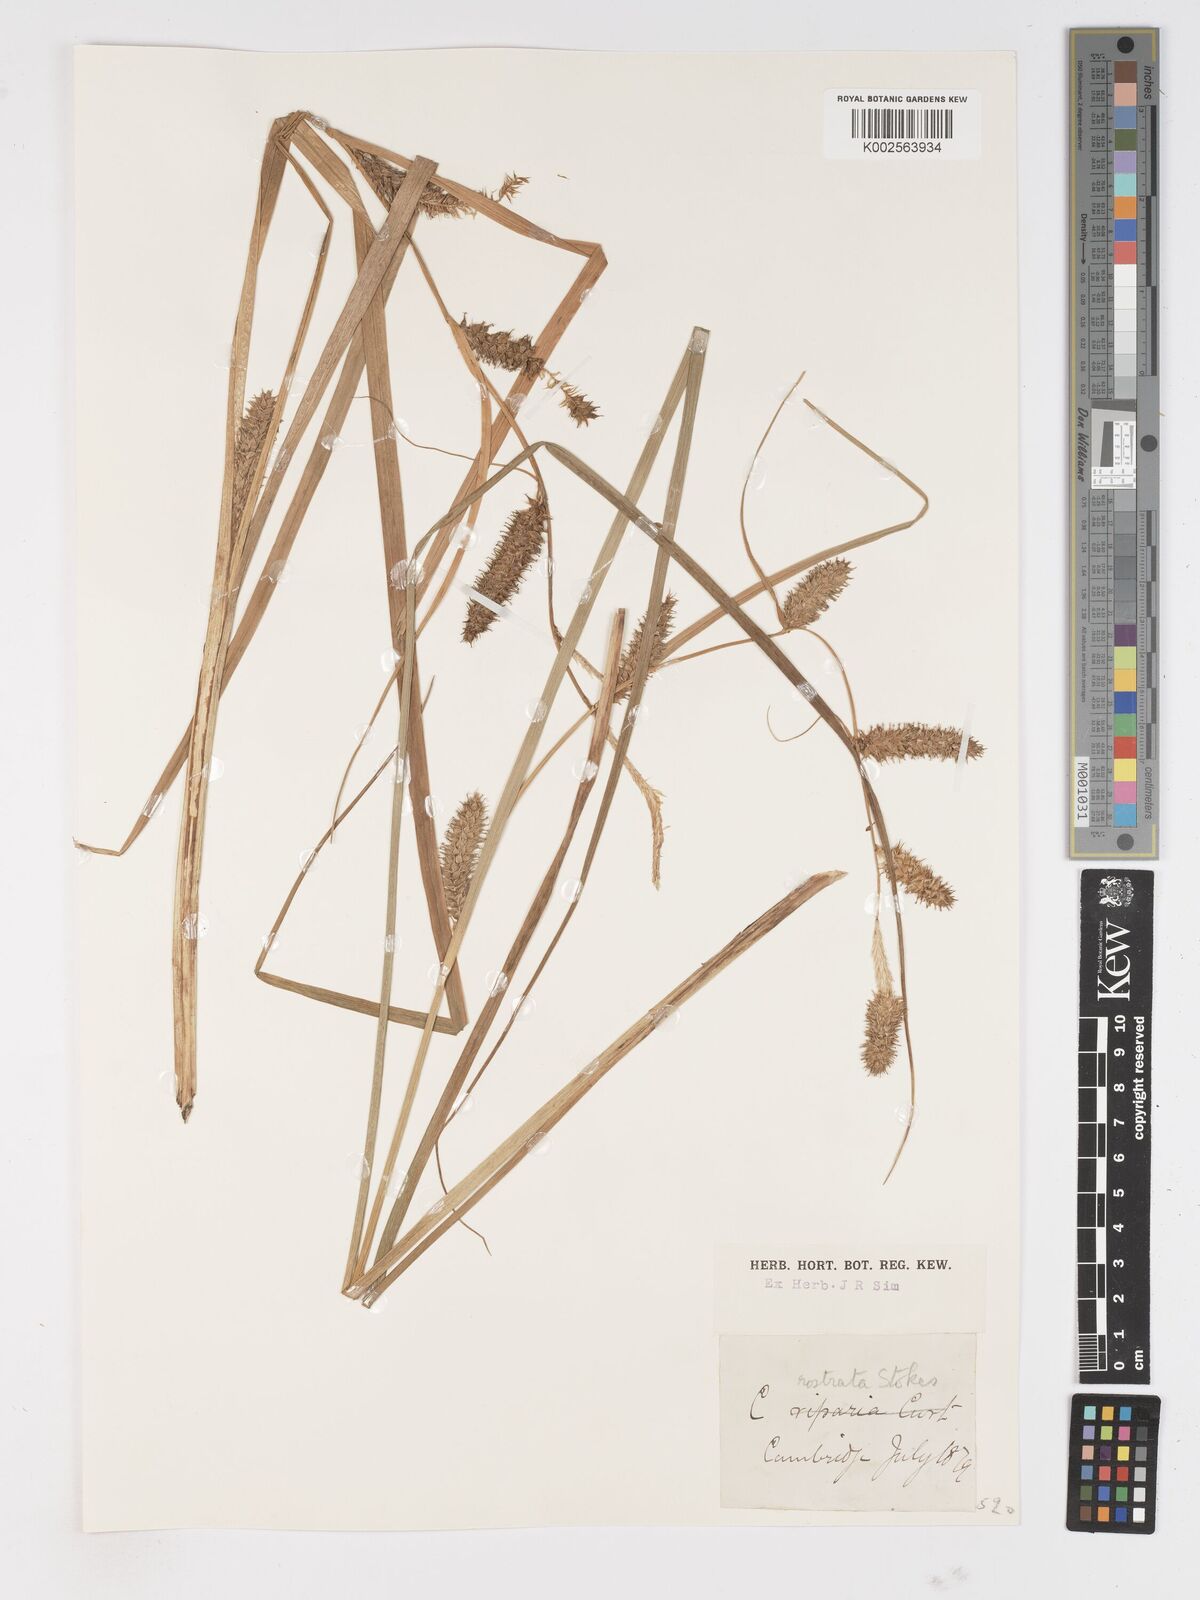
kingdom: Plantae
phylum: Tracheophyta
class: Liliopsida
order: Poales
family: Cyperaceae
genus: Carex
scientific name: Carex rostrata
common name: Bottle sedge
